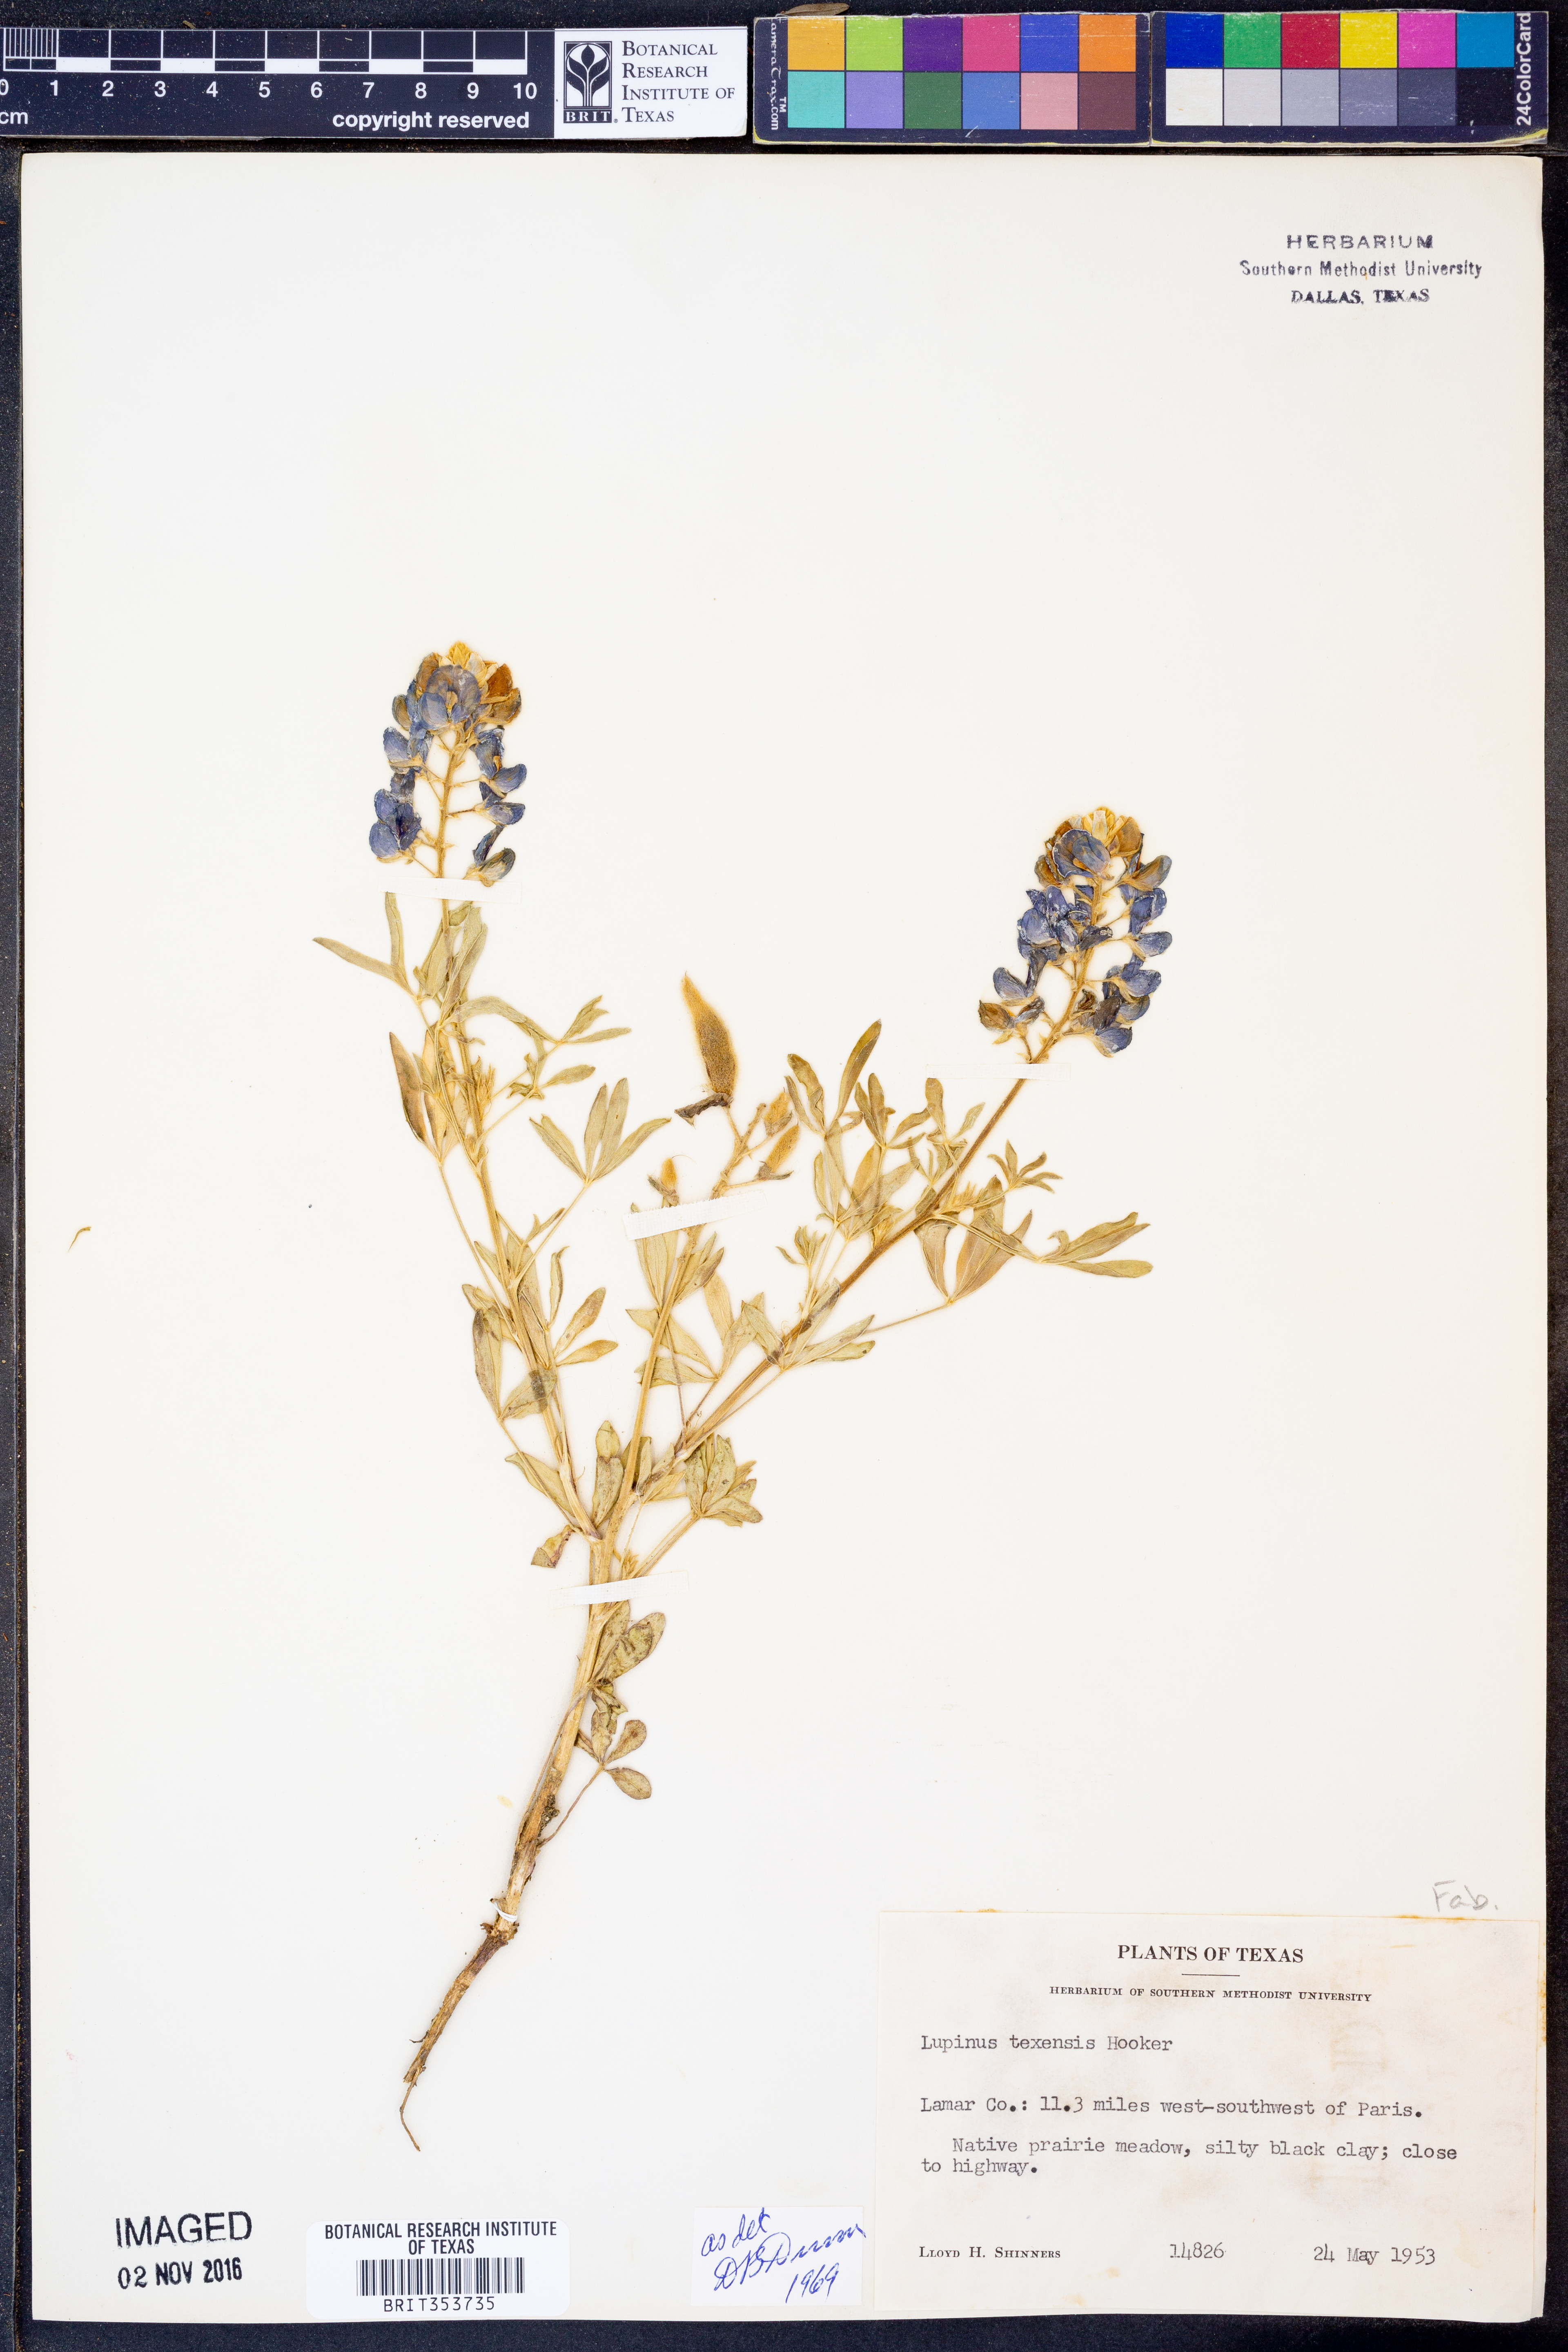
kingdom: Plantae
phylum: Tracheophyta
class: Magnoliopsida
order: Fabales
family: Fabaceae
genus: Lupinus
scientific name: Lupinus texensis
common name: Texas bluebonnet
